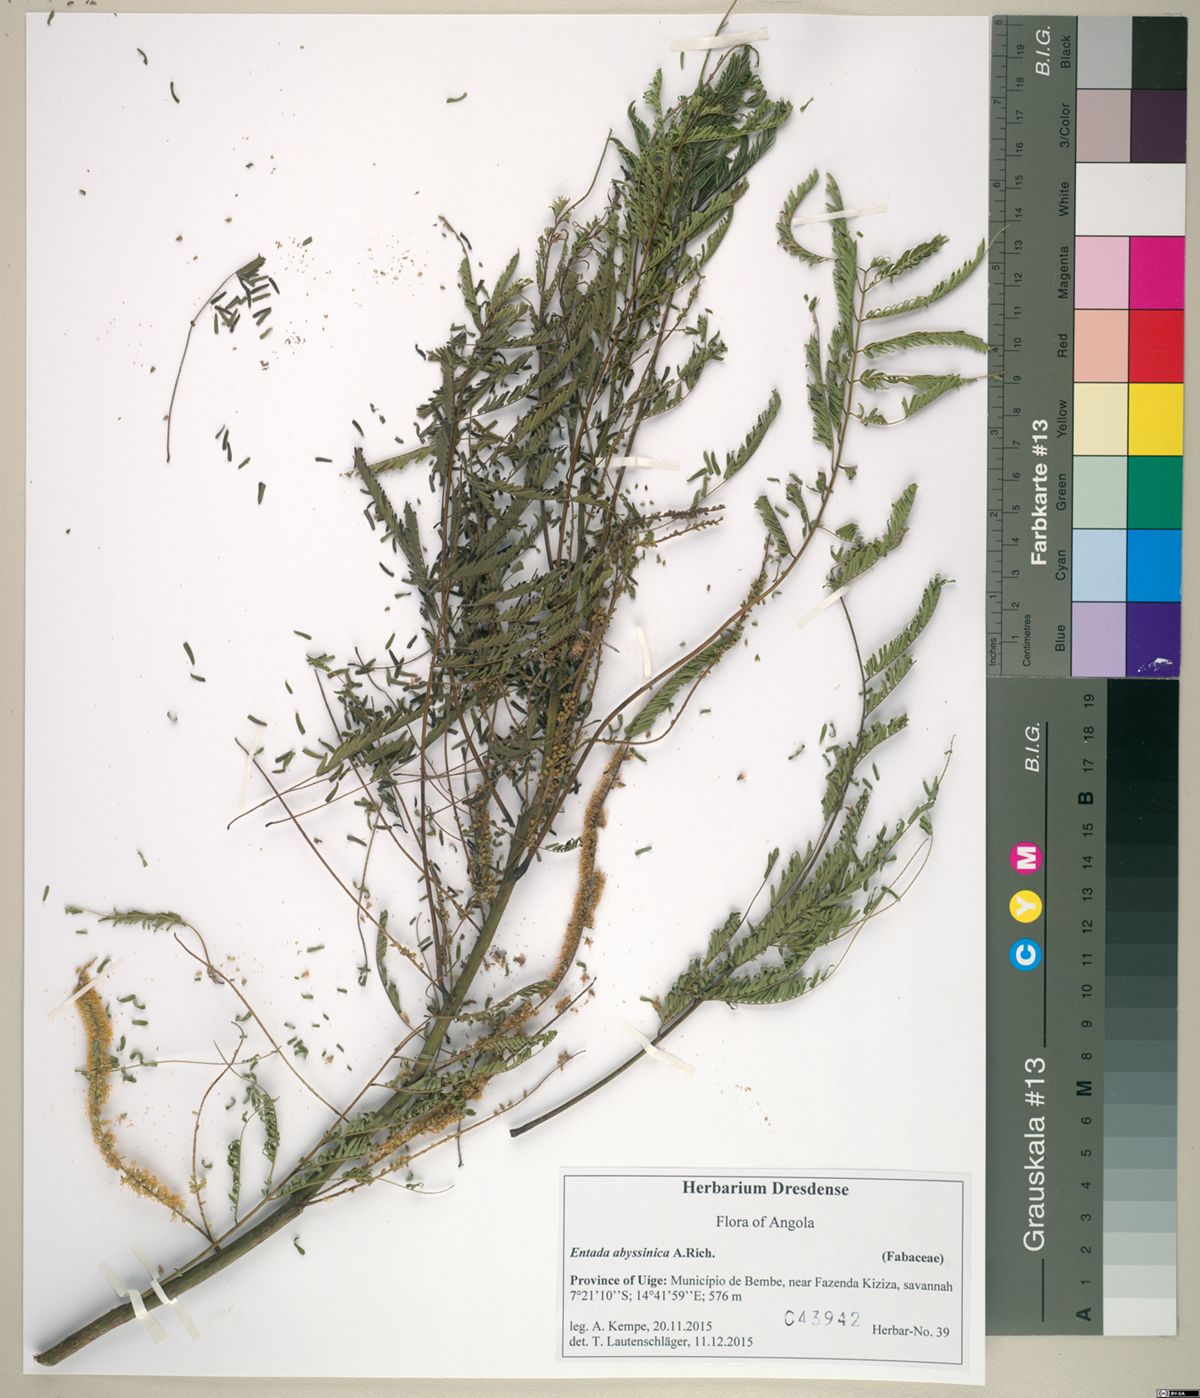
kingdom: Plantae
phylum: Tracheophyta
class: Magnoliopsida
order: Fabales
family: Fabaceae
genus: Entada
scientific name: Entada abyssinica
